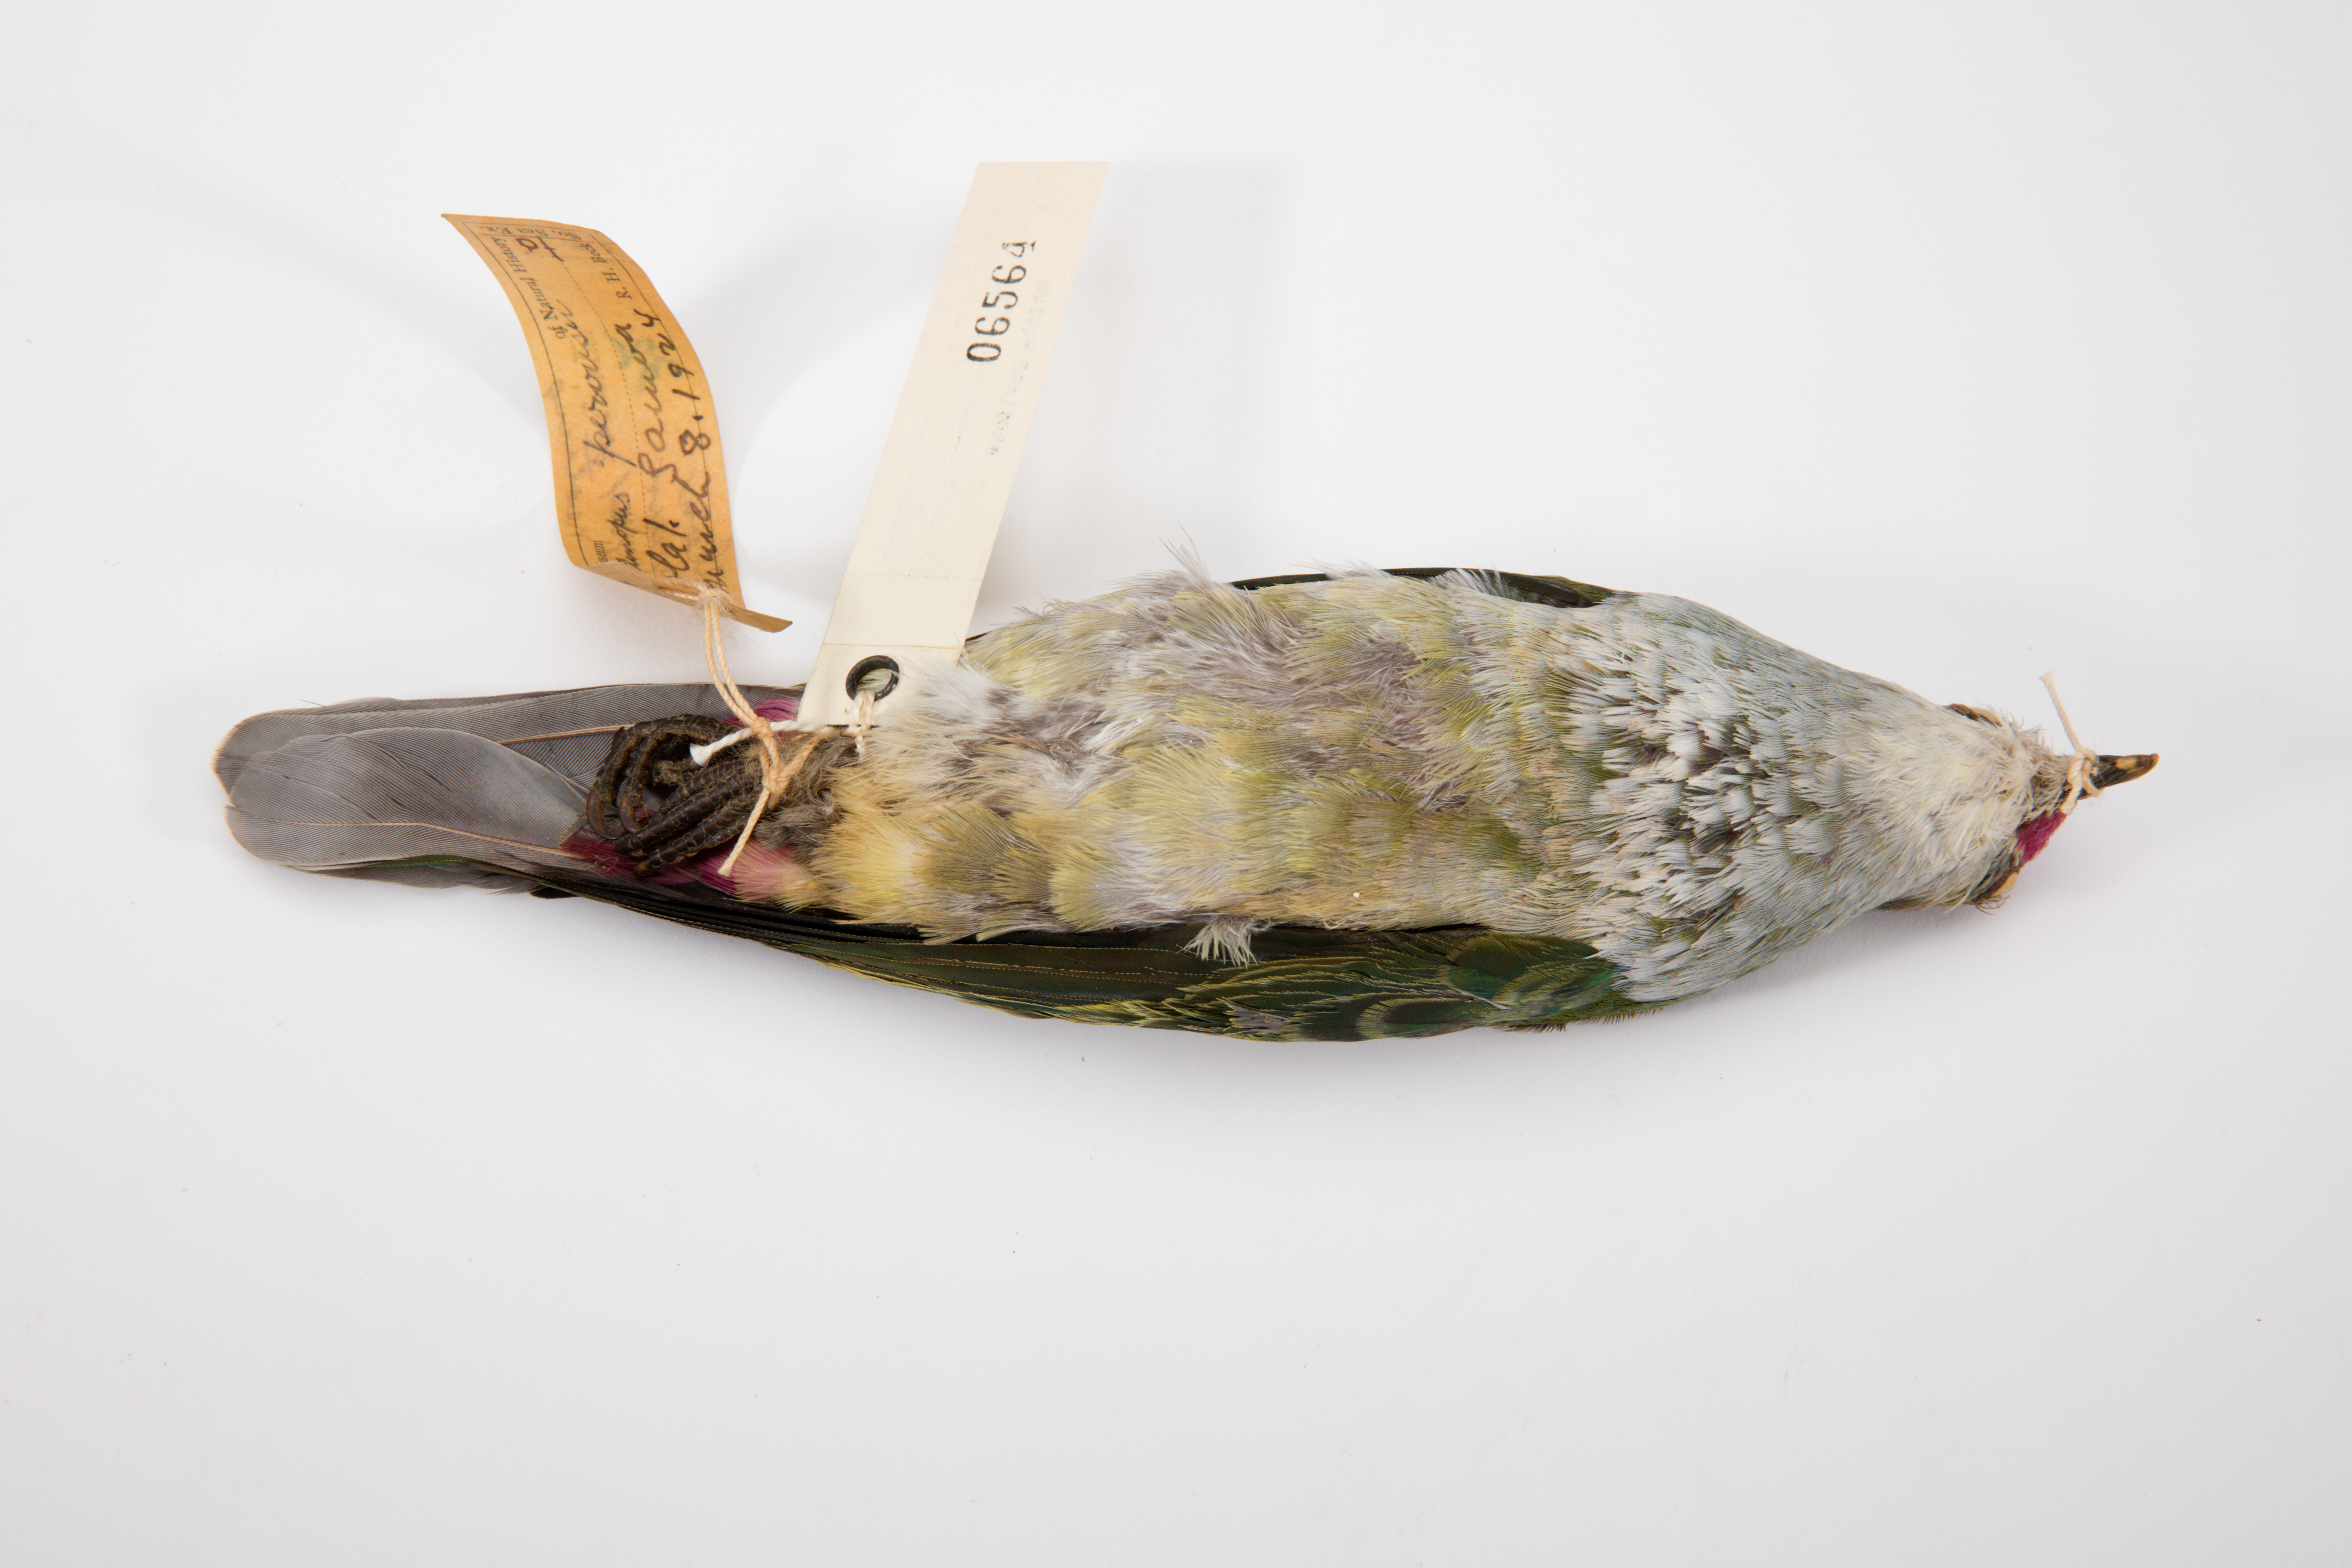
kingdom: Animalia
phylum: Chordata
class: Aves
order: Columbiformes
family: Columbidae
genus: Ptilinopus
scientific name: Ptilinopus perousii
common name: Many-colored fruit-dove
